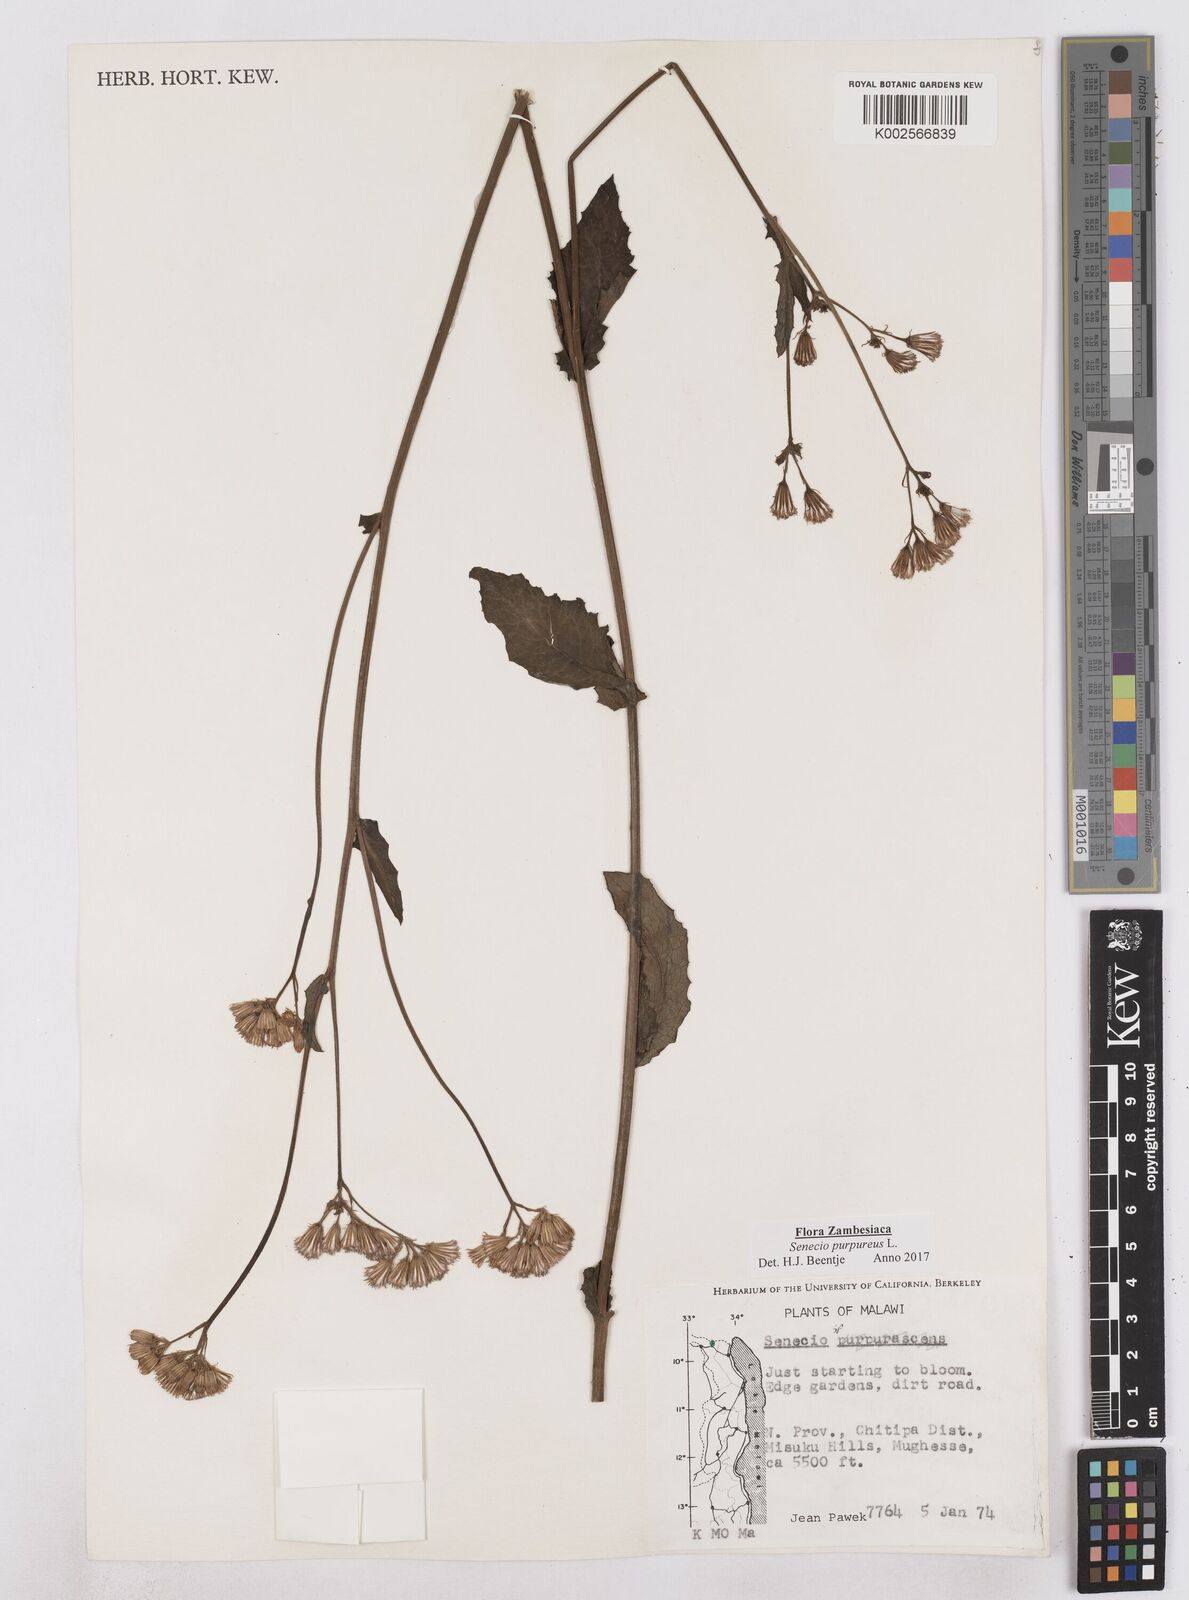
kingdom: Plantae
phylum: Tracheophyta
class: Magnoliopsida
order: Asterales
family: Asteraceae
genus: Senecio
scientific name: Senecio purpureus
